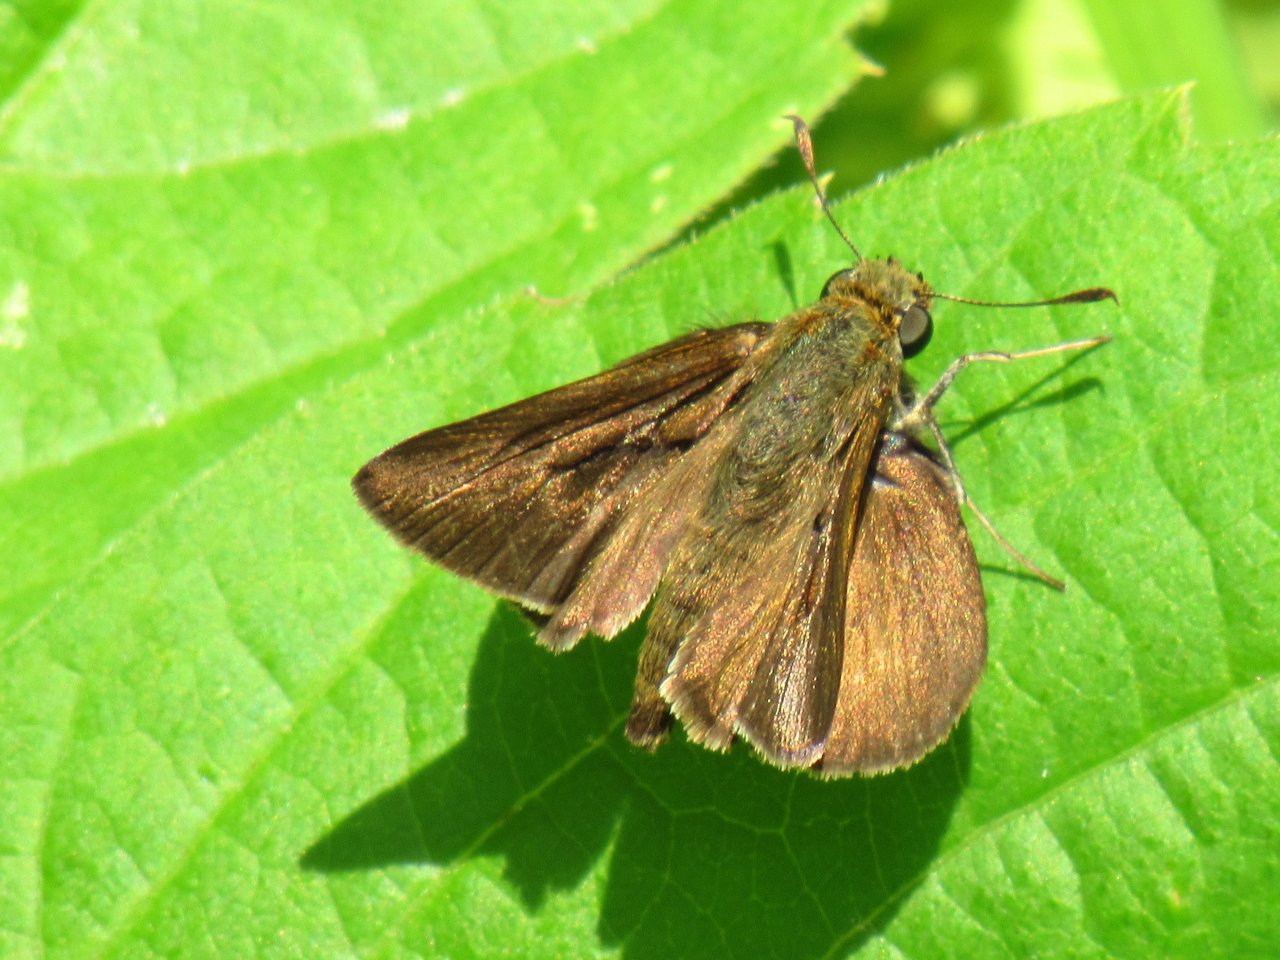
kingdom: Animalia
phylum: Arthropoda
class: Insecta
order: Lepidoptera
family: Hesperiidae
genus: Euphyes
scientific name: Euphyes vestris
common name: Dun Skipper
